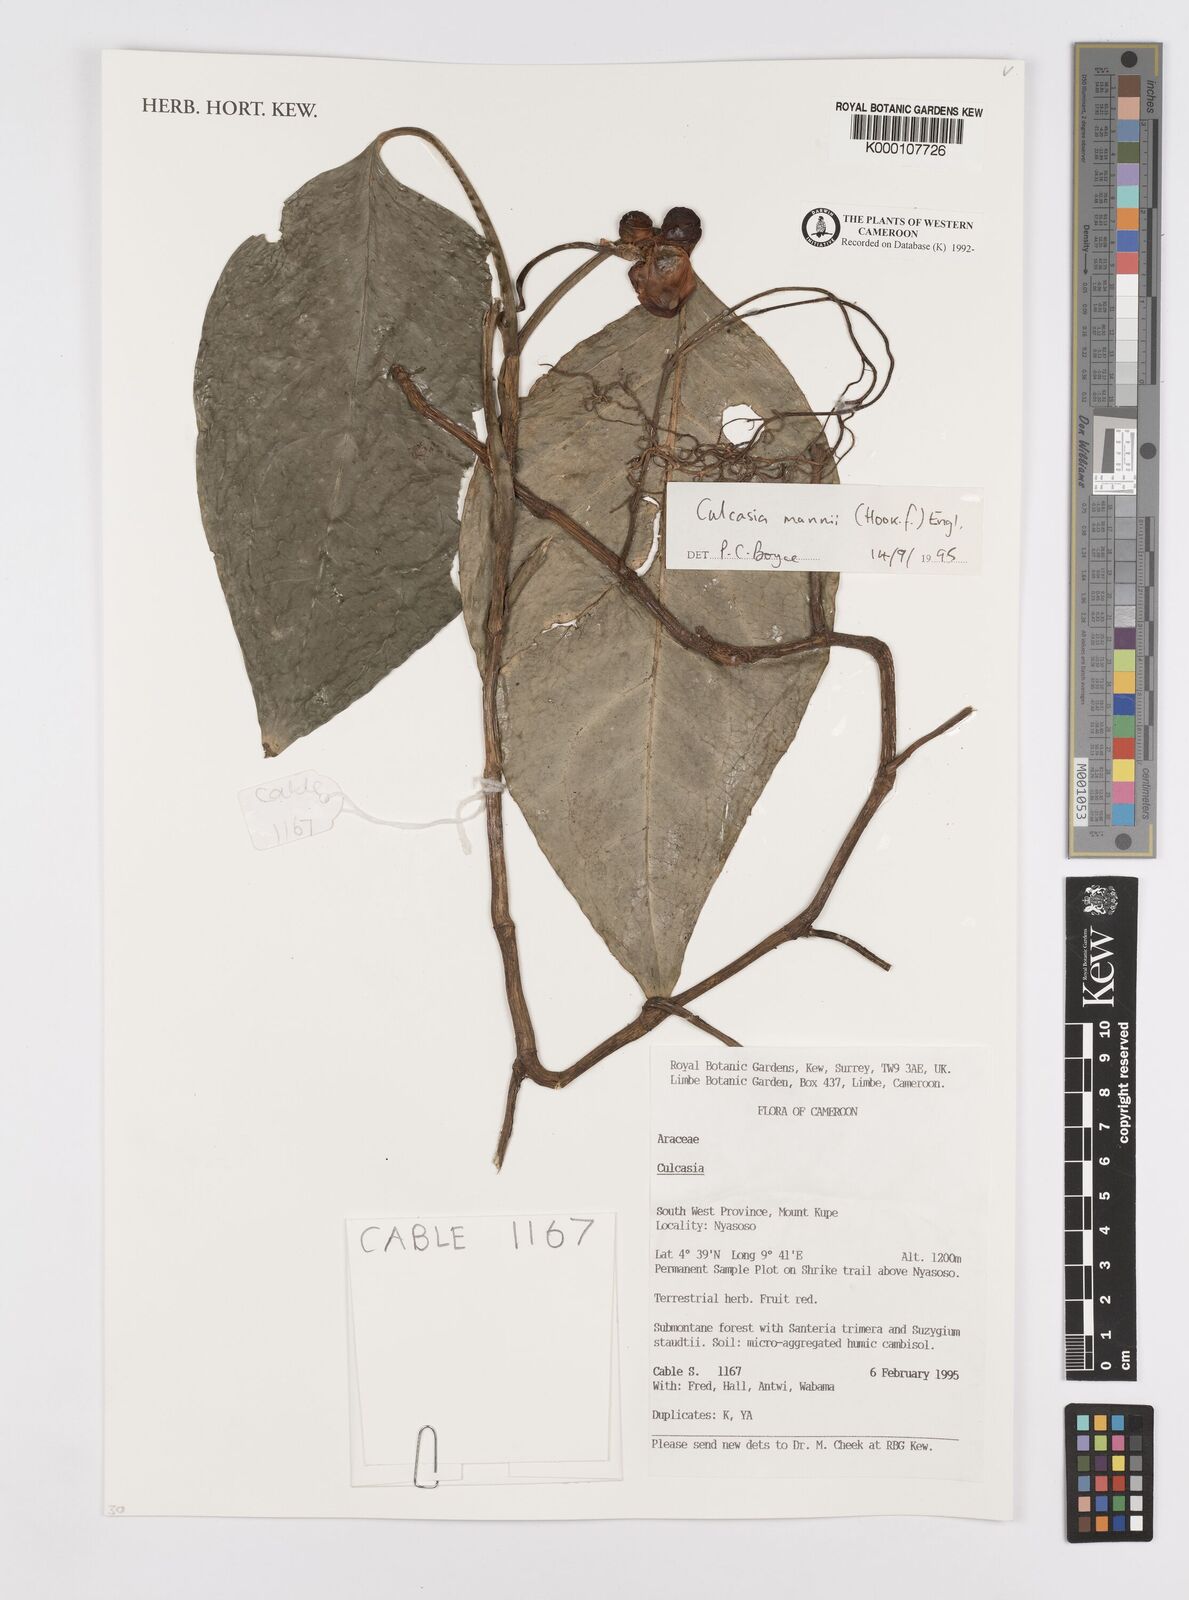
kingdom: Plantae
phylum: Tracheophyta
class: Liliopsida
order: Alismatales
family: Araceae
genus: Culcasia
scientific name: Culcasia mannii
